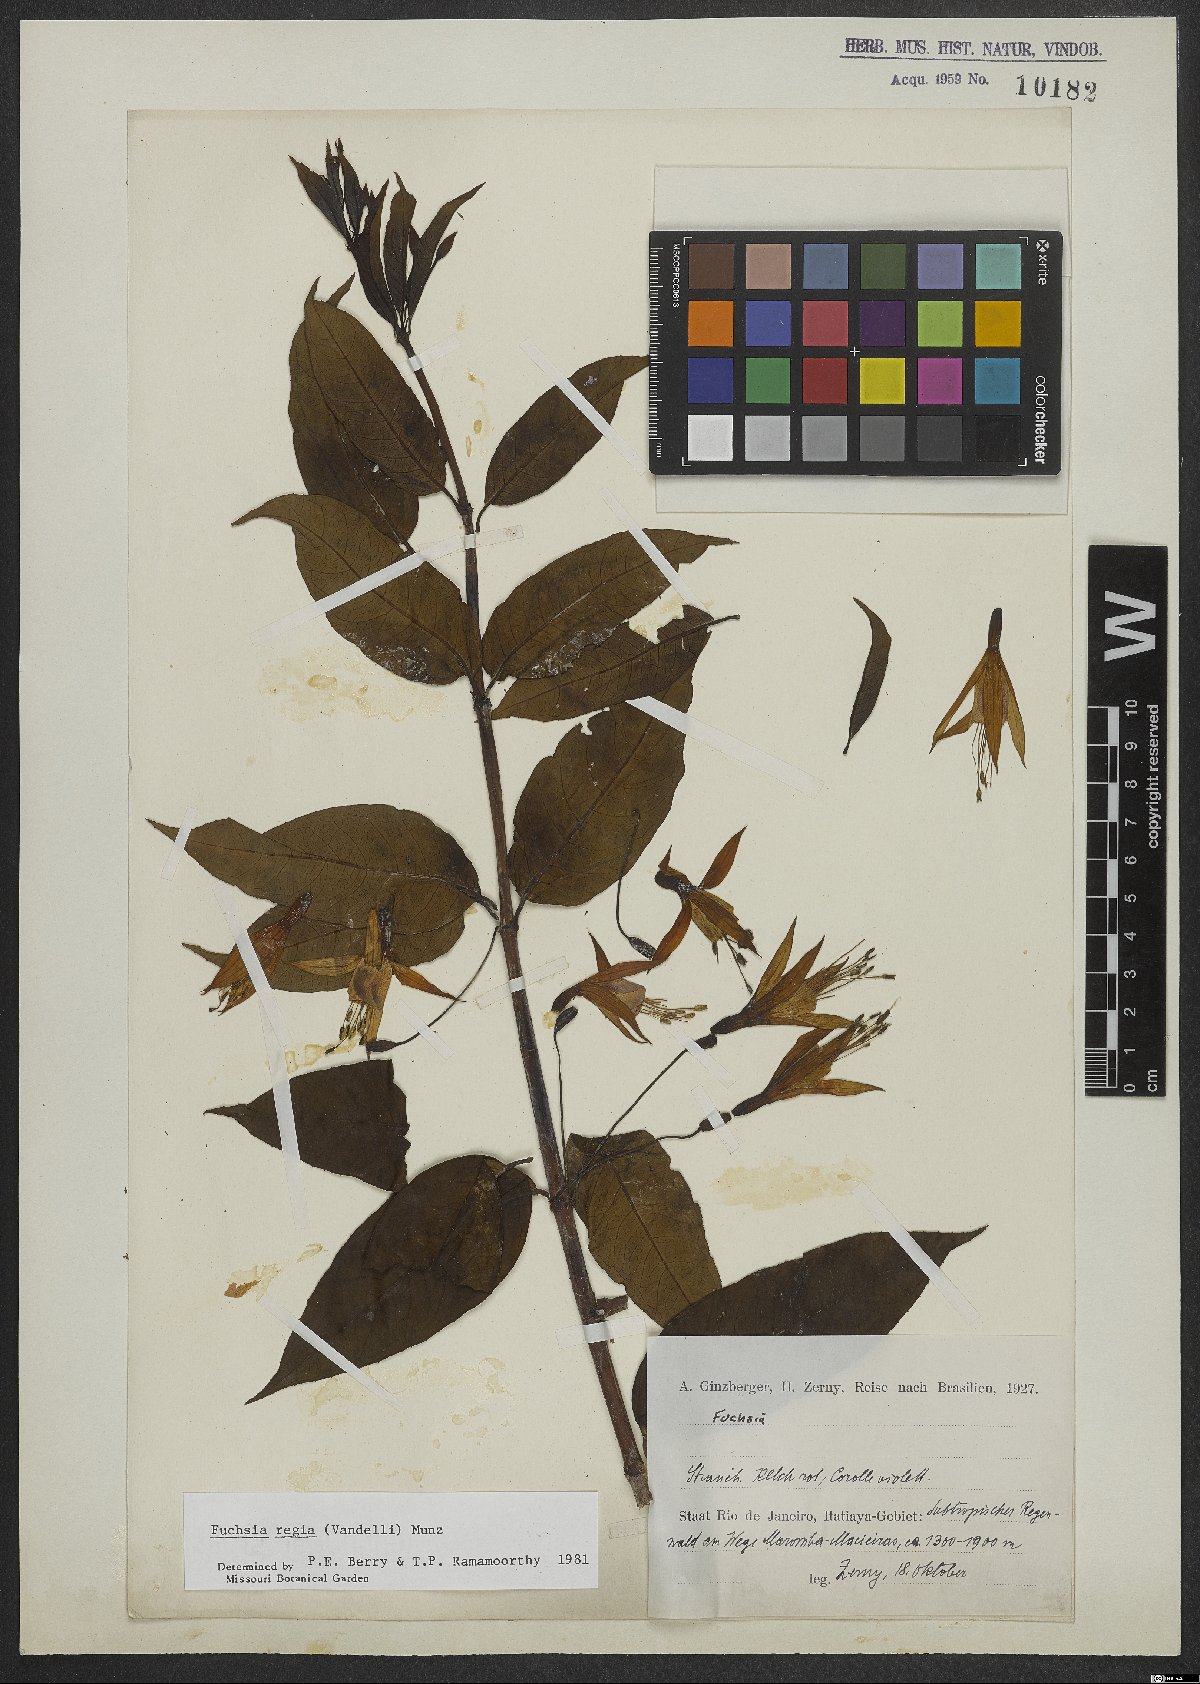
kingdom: Plantae
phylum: Tracheophyta
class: Magnoliopsida
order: Myrtales
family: Onagraceae
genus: Fuchsia
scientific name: Fuchsia regia
